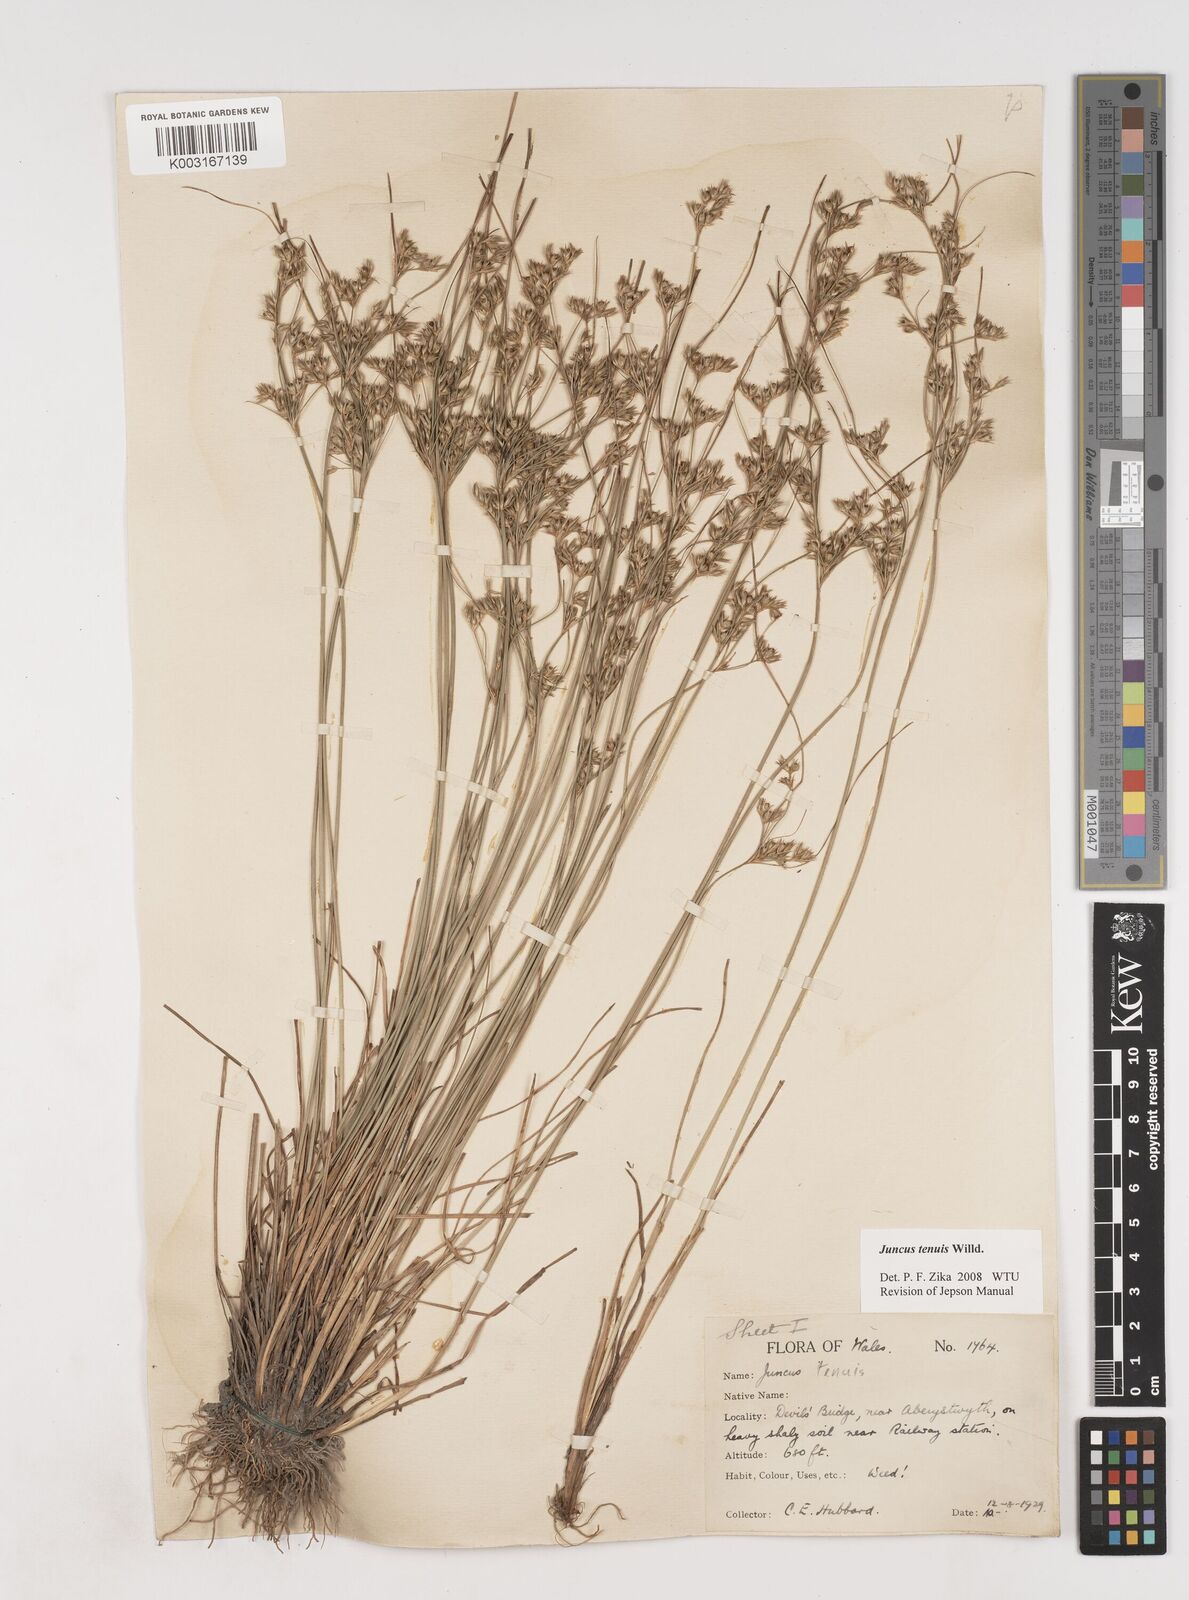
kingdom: Plantae
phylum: Tracheophyta
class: Liliopsida
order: Poales
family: Juncaceae
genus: Juncus
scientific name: Juncus tenuis
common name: Slender rush
